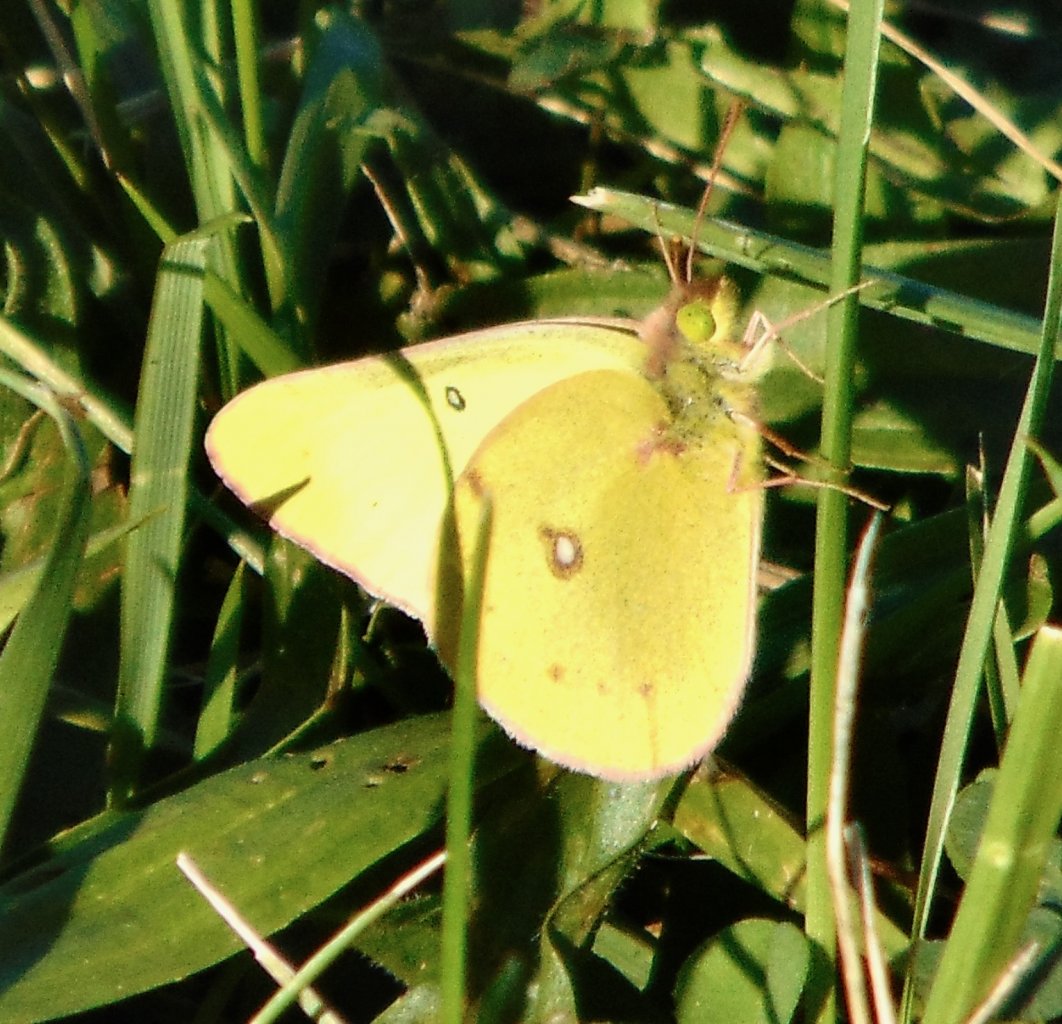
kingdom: Animalia
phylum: Arthropoda
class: Insecta
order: Lepidoptera
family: Pieridae
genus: Colias
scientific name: Colias philodice
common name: Clouded Sulphur
